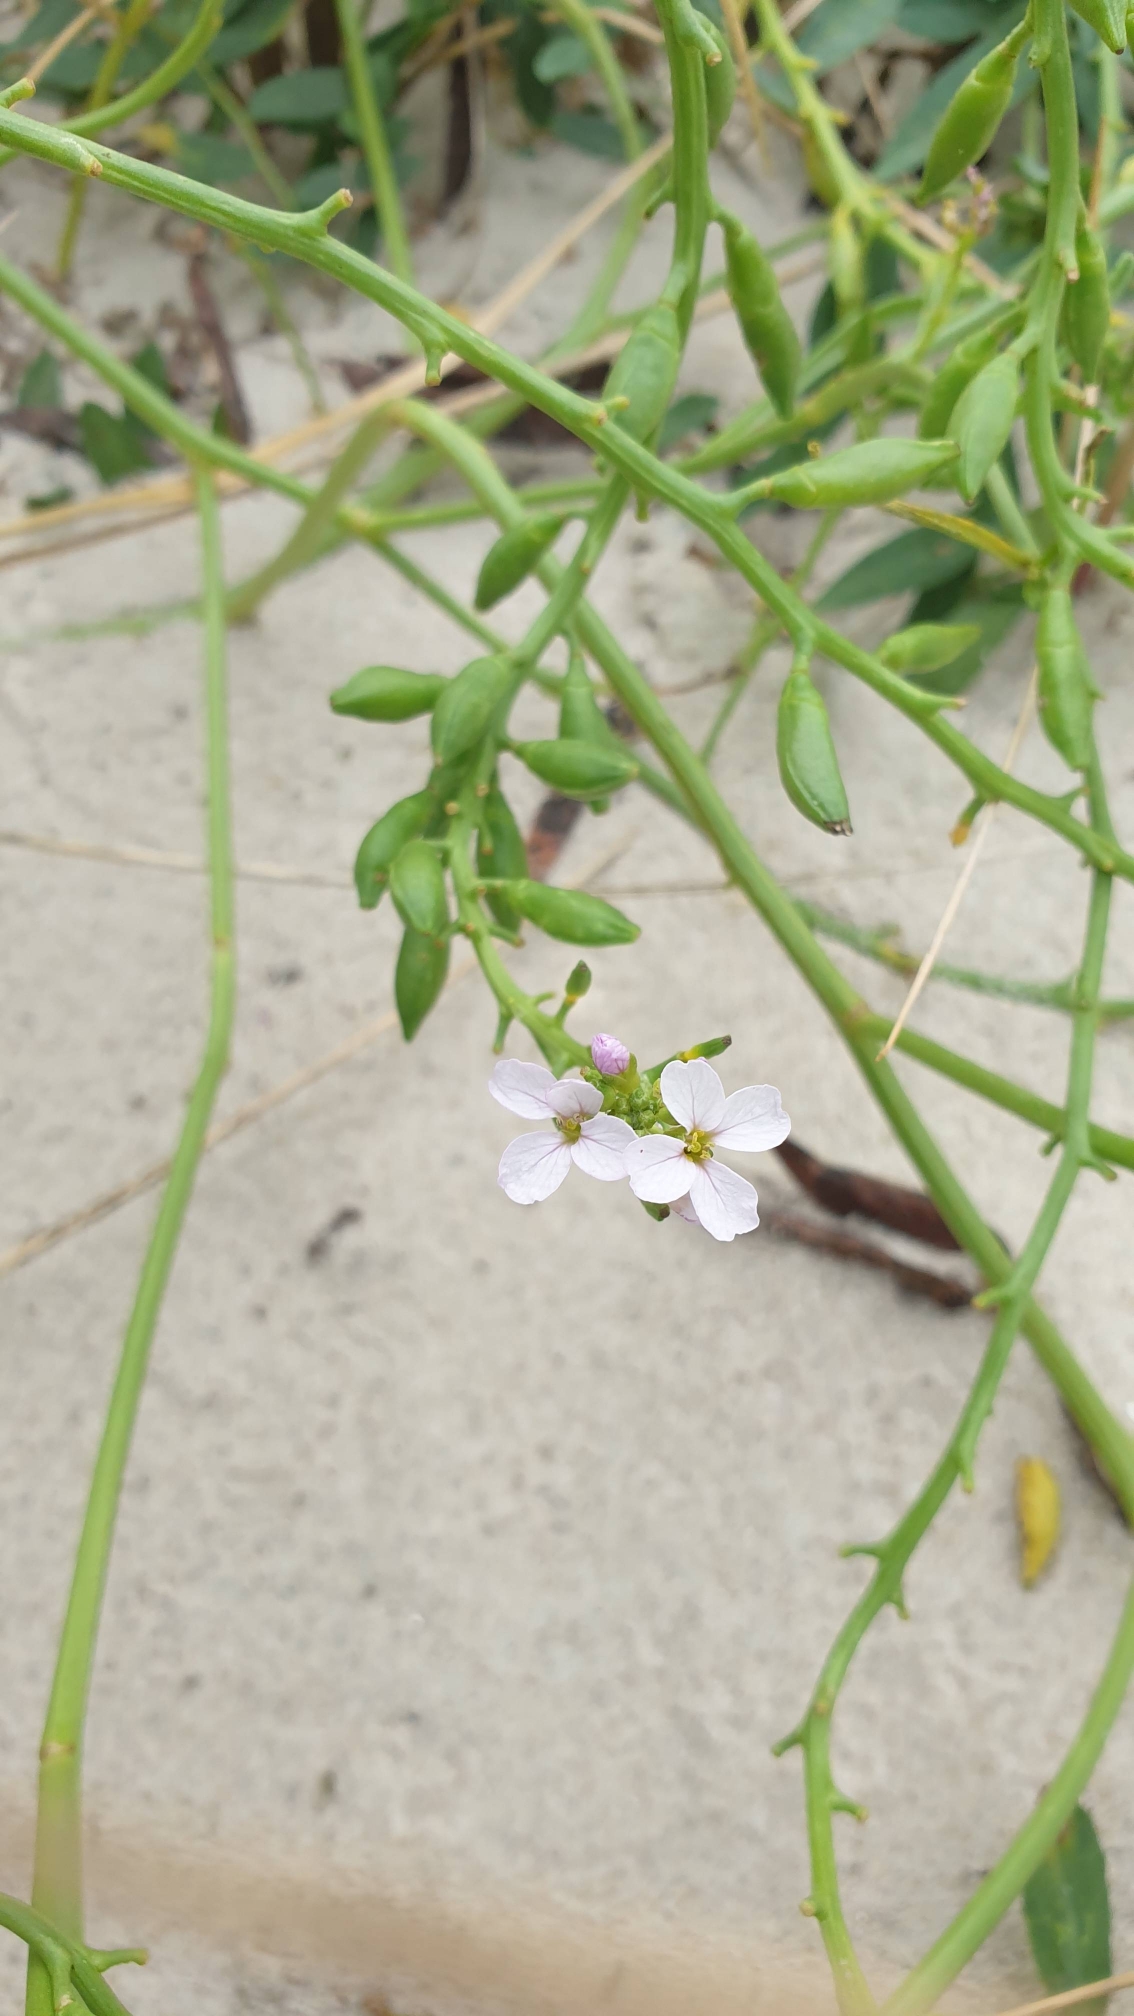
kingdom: Plantae
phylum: Tracheophyta
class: Magnoliopsida
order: Brassicales
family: Brassicaceae
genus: Cakile
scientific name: Cakile maritima
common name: Strandsennep
